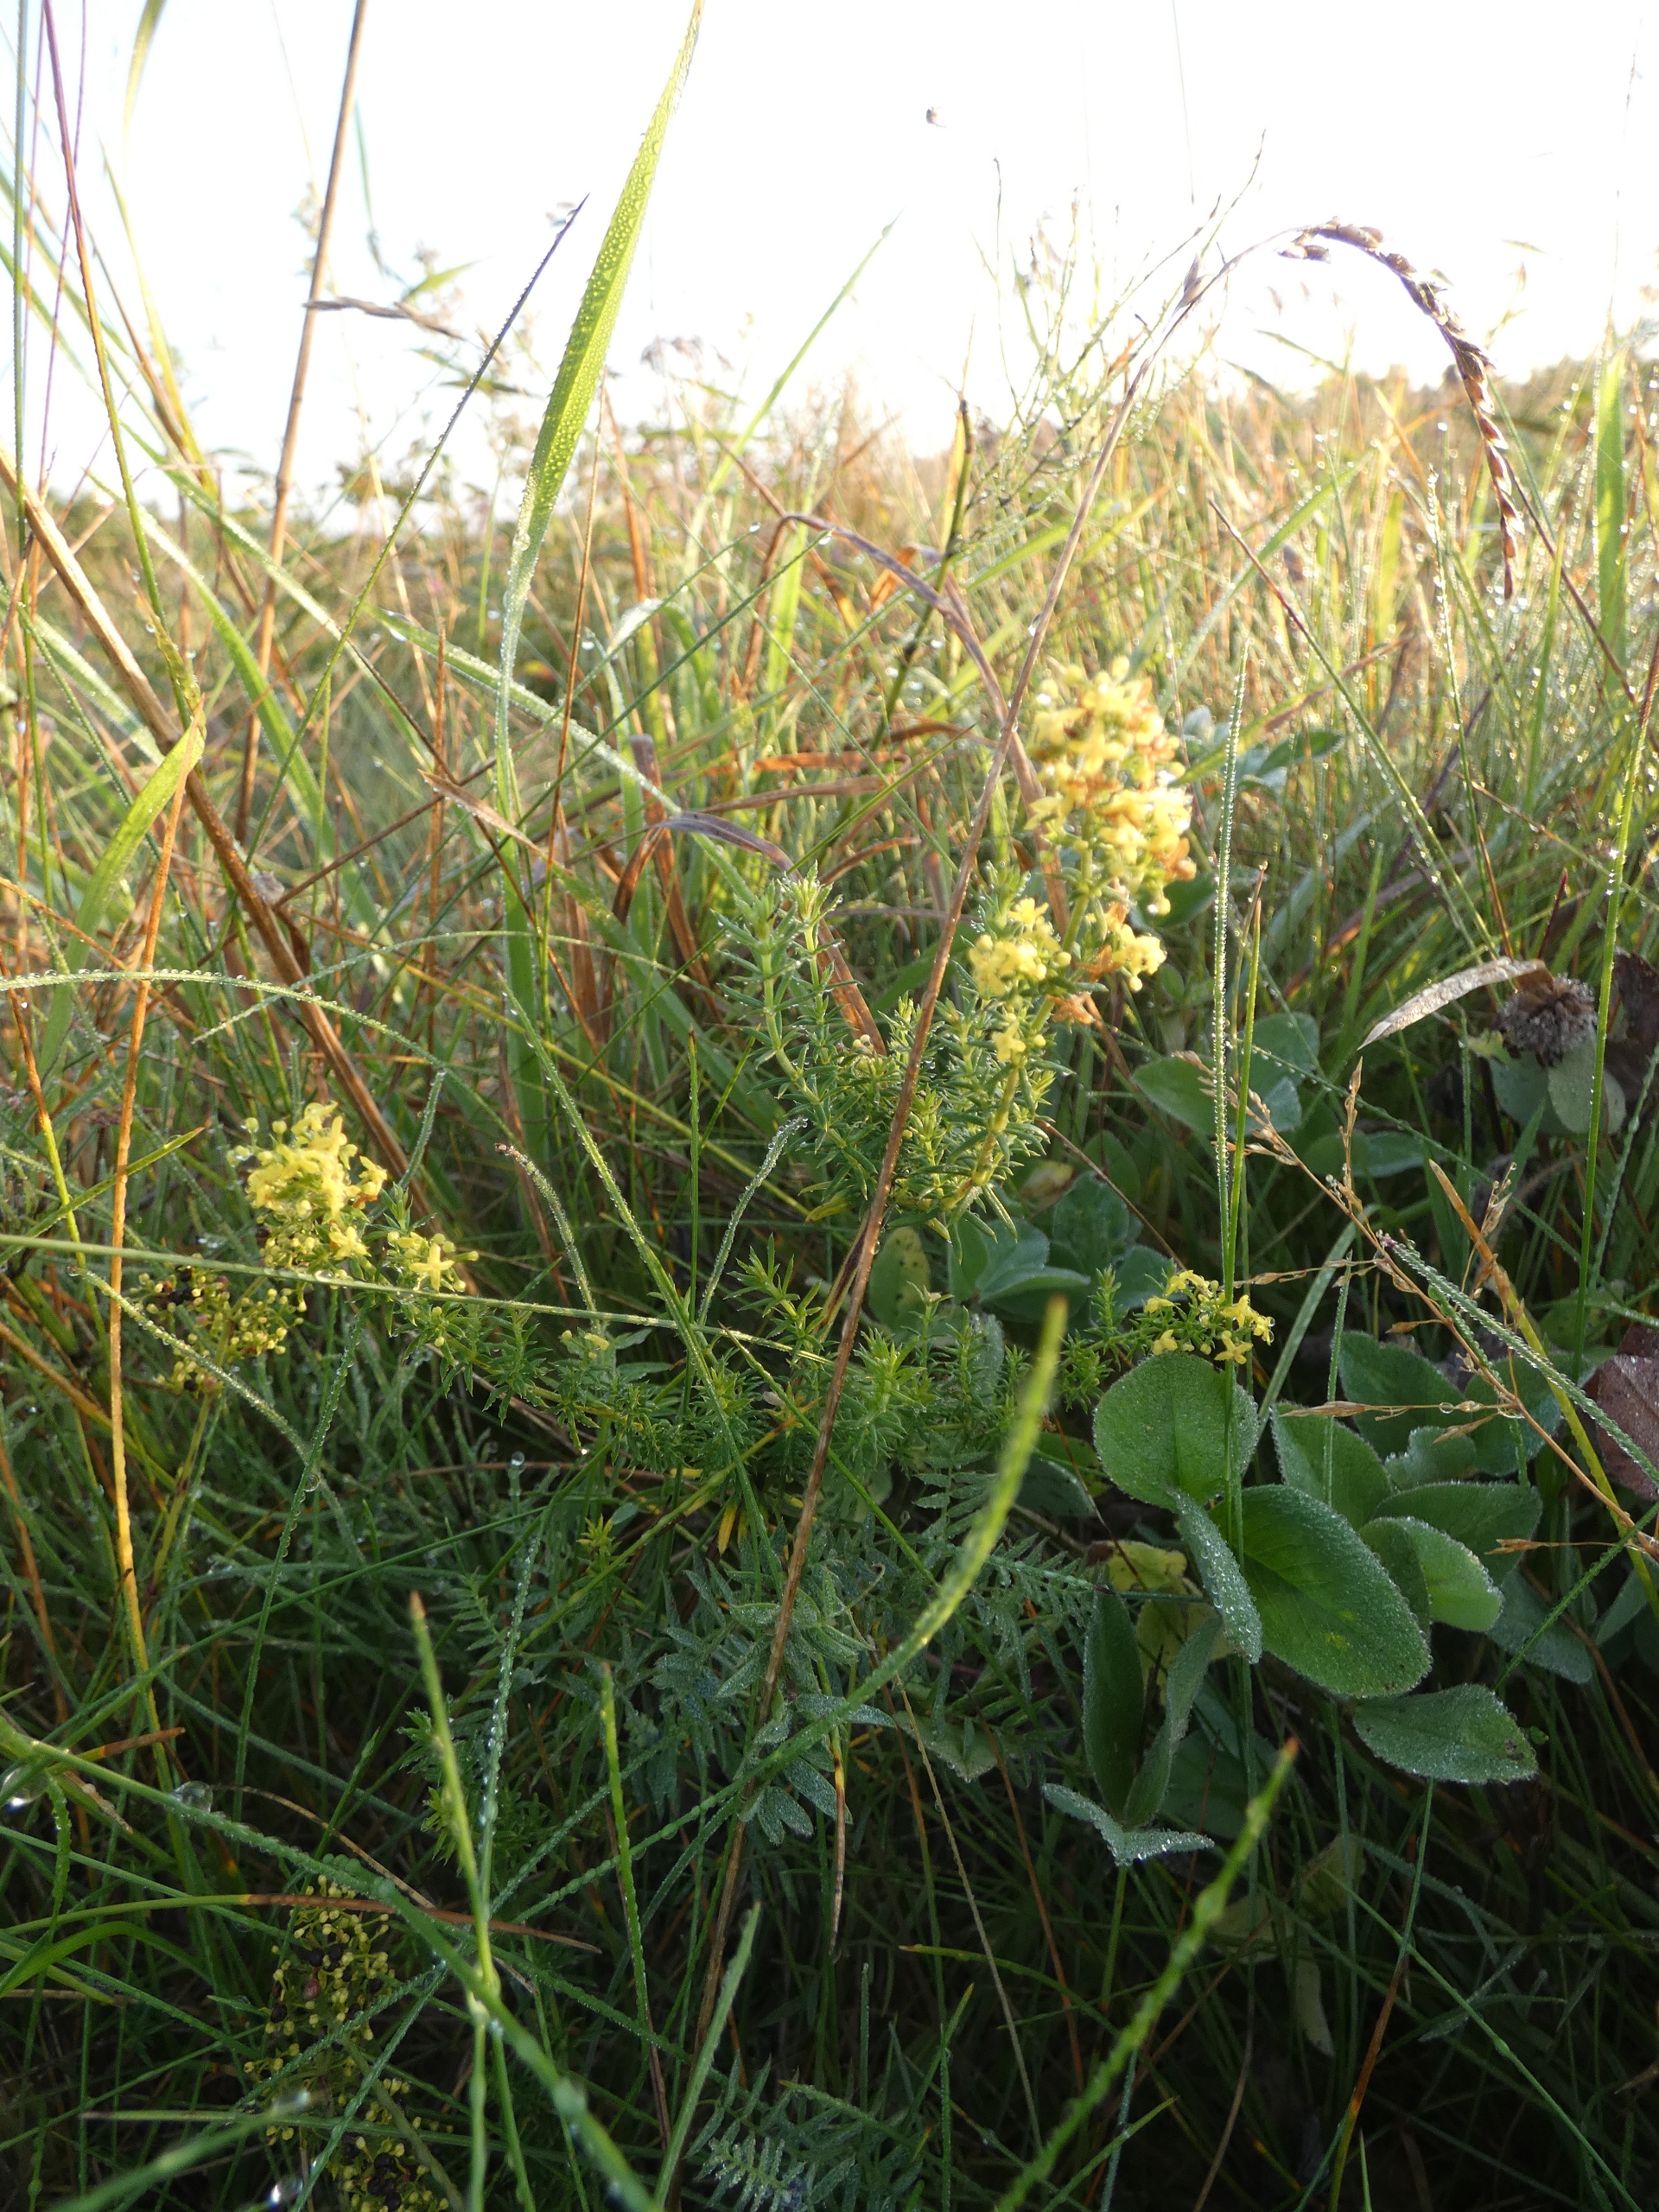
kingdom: Plantae
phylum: Tracheophyta
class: Magnoliopsida
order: Gentianales
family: Rubiaceae
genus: Galium
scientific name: Galium verum
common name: Gul snerre
